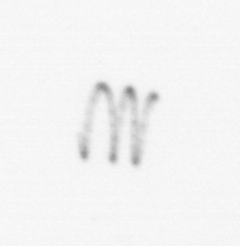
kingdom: Chromista
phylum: Ochrophyta
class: Bacillariophyceae
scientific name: Bacillariophyceae
